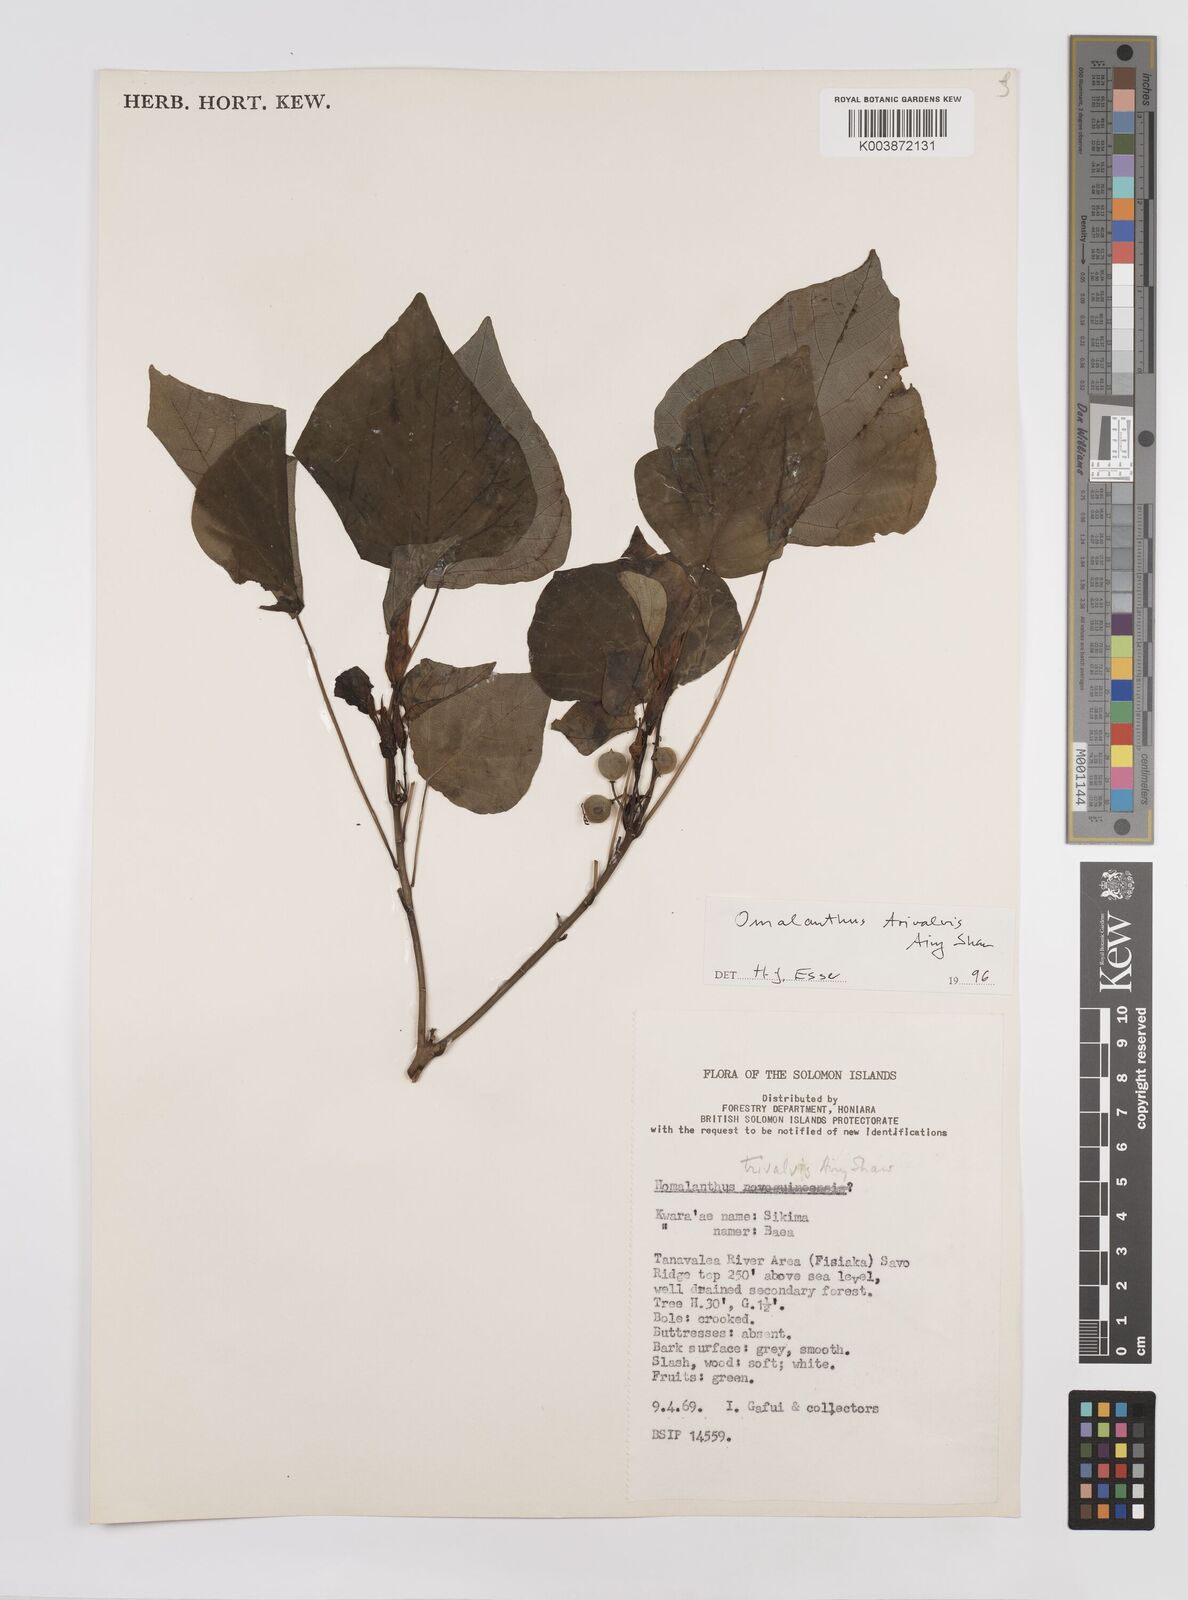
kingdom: Plantae
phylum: Tracheophyta
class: Magnoliopsida
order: Malpighiales
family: Euphorbiaceae
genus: Homalanthus
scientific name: Homalanthus trivalvis
